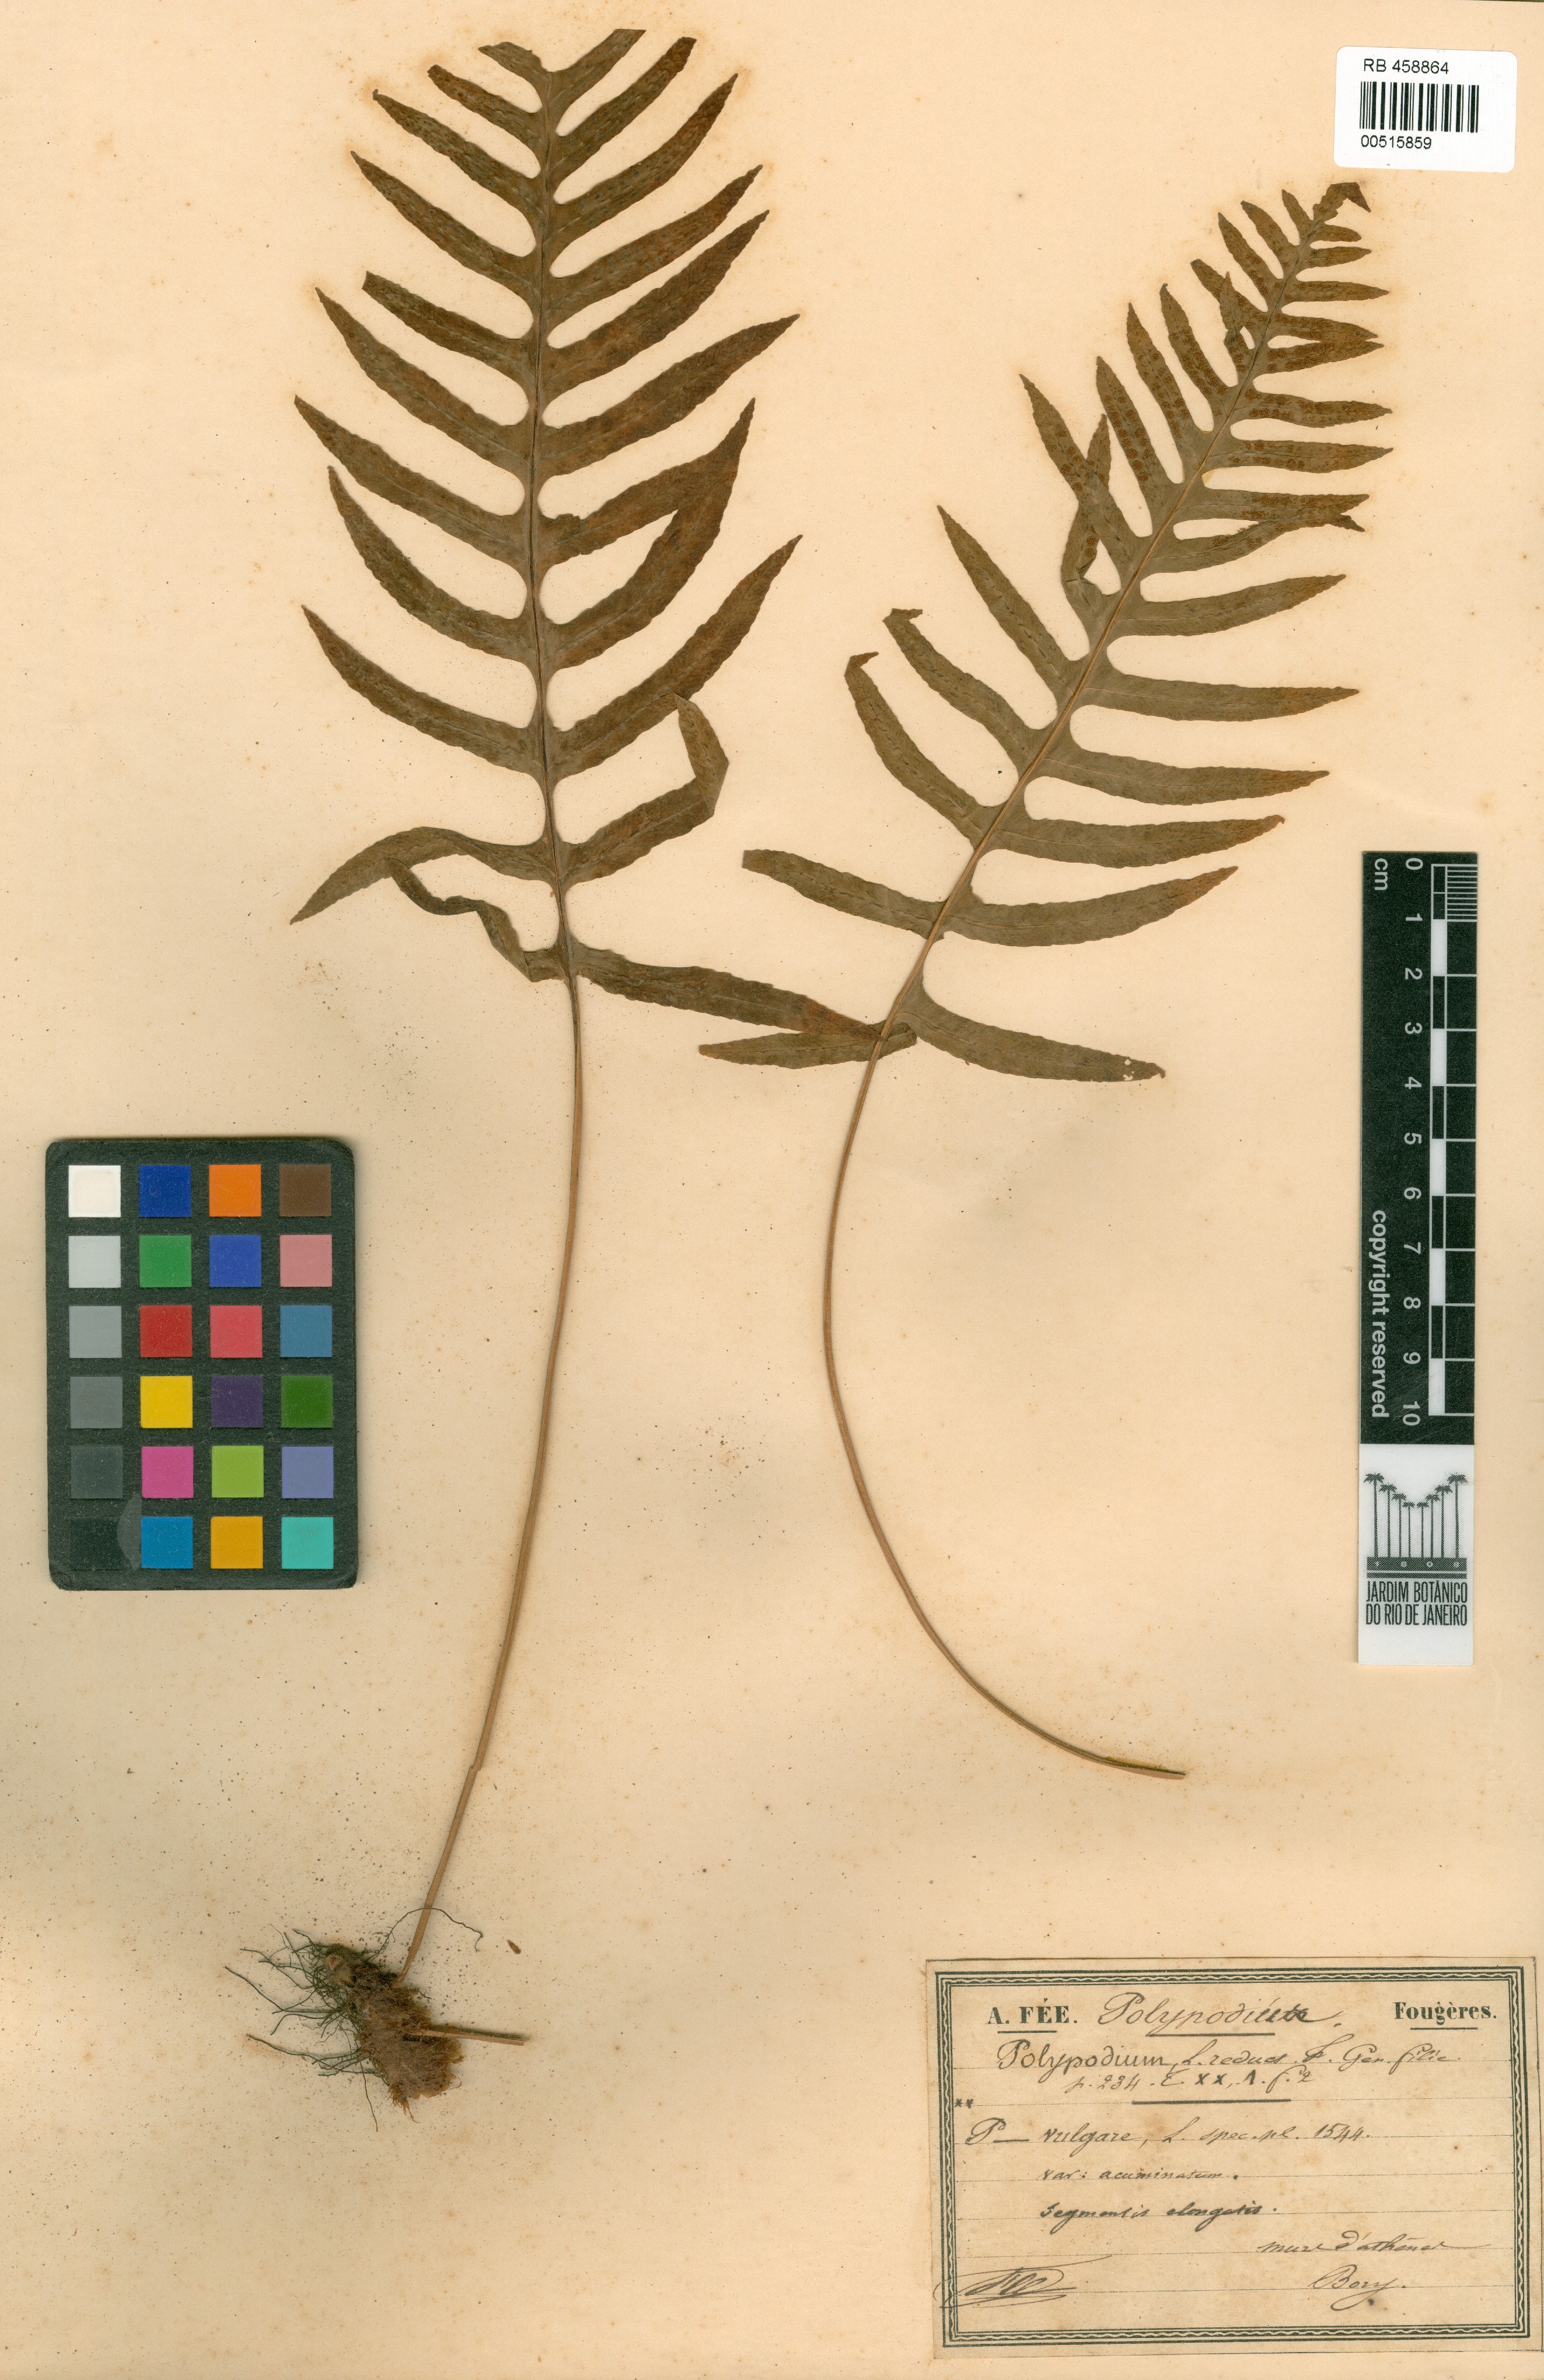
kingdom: Plantae
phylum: Tracheophyta
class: Polypodiopsida
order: Polypodiales
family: Polypodiaceae
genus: Polypodium
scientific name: Polypodium vulgare
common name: Common polypody
